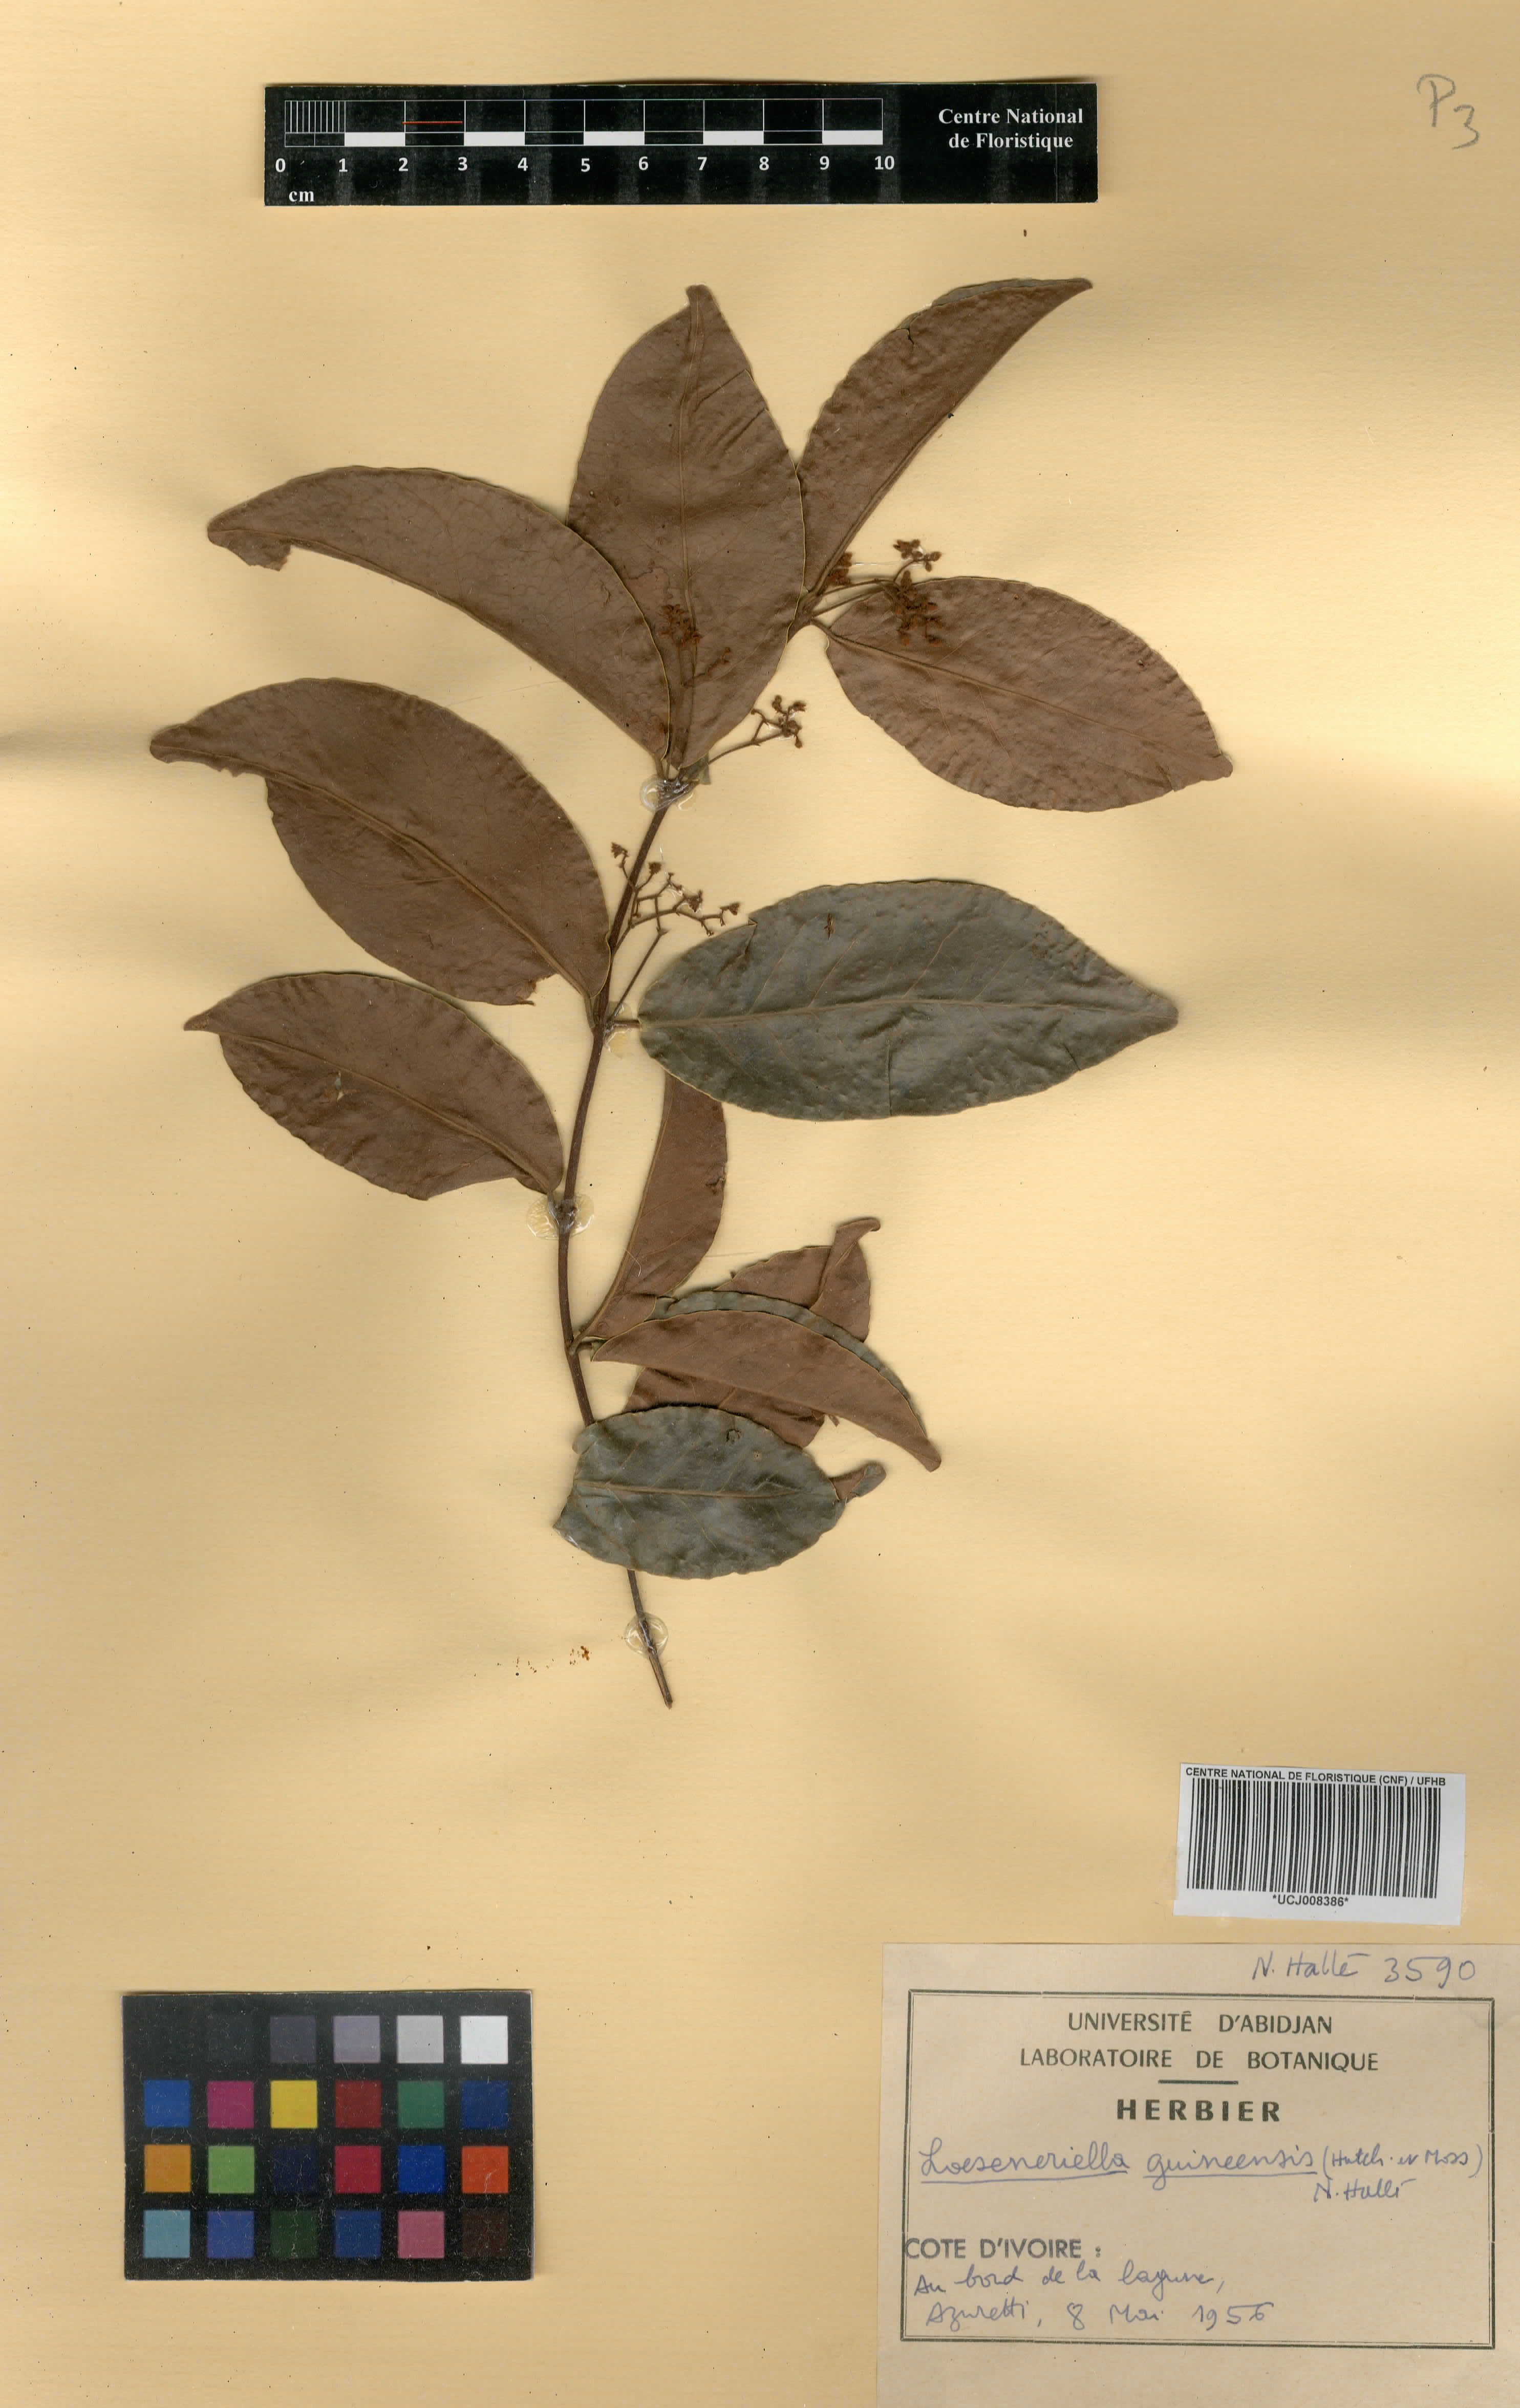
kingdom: Plantae
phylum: Tracheophyta
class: Magnoliopsida
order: Celastrales
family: Celastraceae
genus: Loeseneriella
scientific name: Loeseneriella apocynoides
